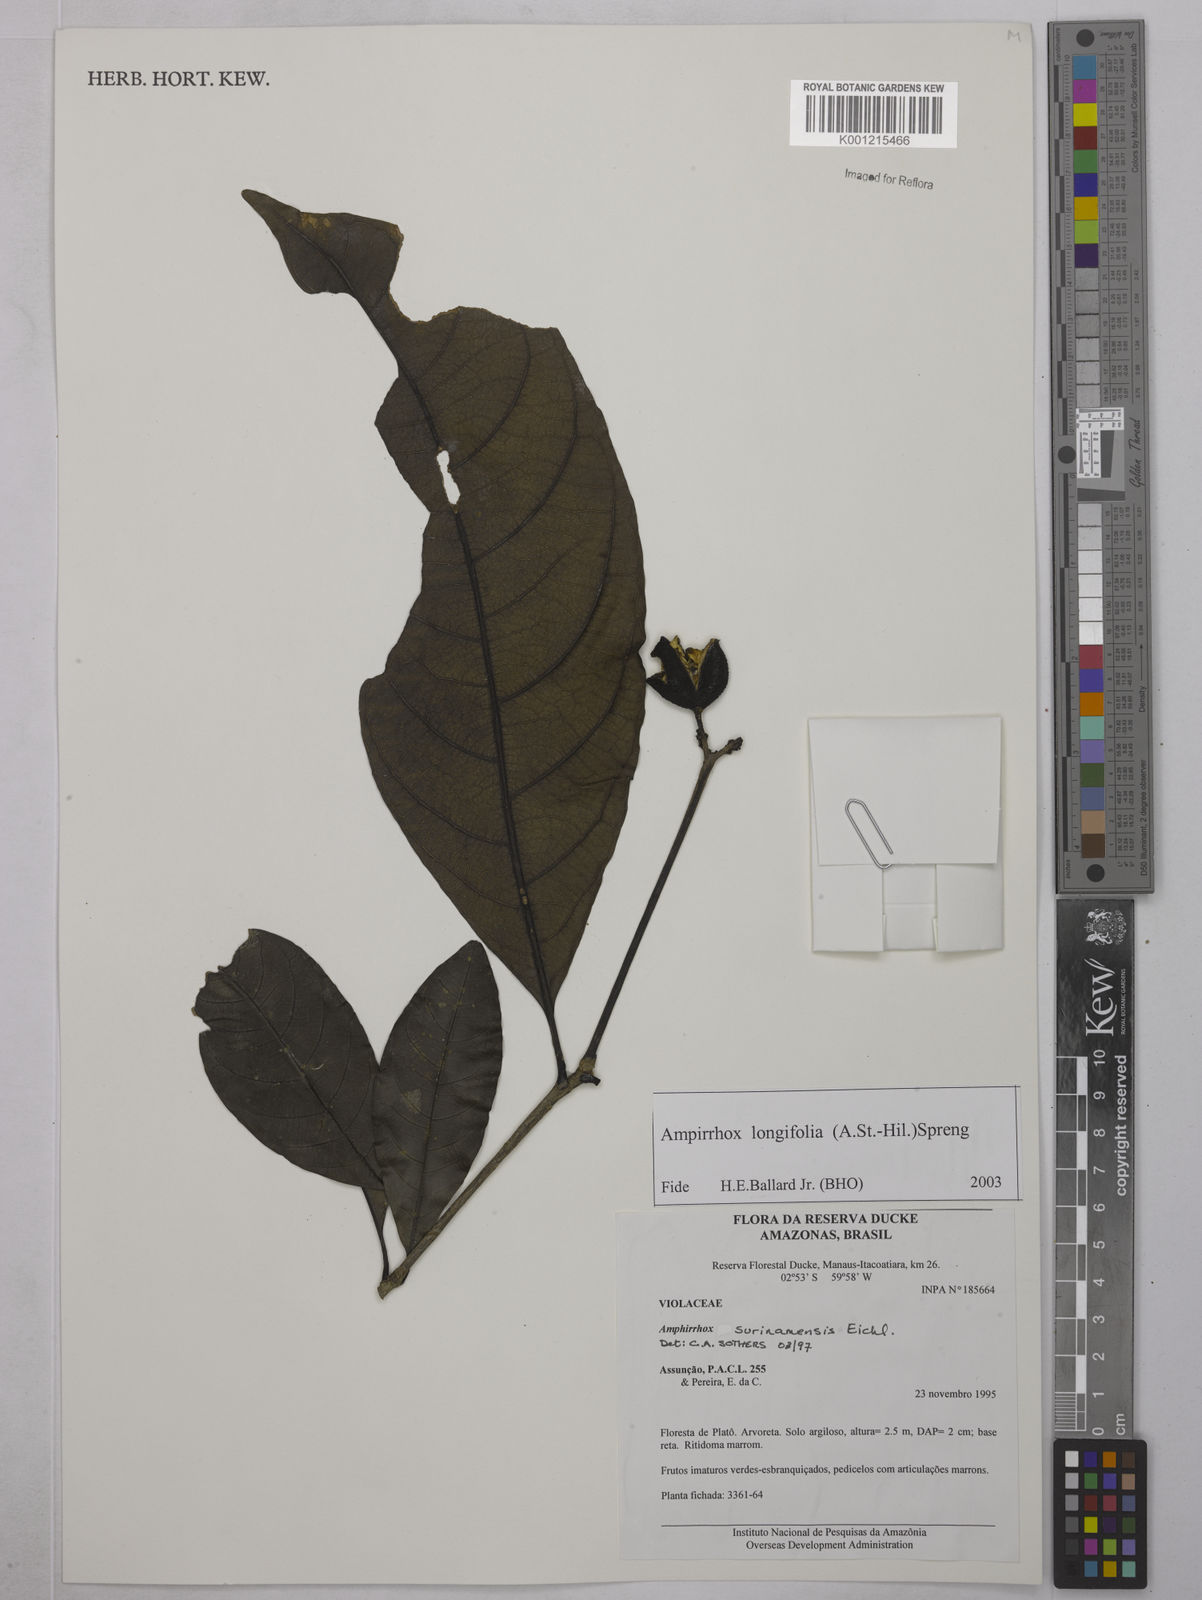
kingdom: Plantae
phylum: Tracheophyta
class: Magnoliopsida
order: Malpighiales
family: Violaceae
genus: Amphirrhox
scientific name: Amphirrhox longifolia
